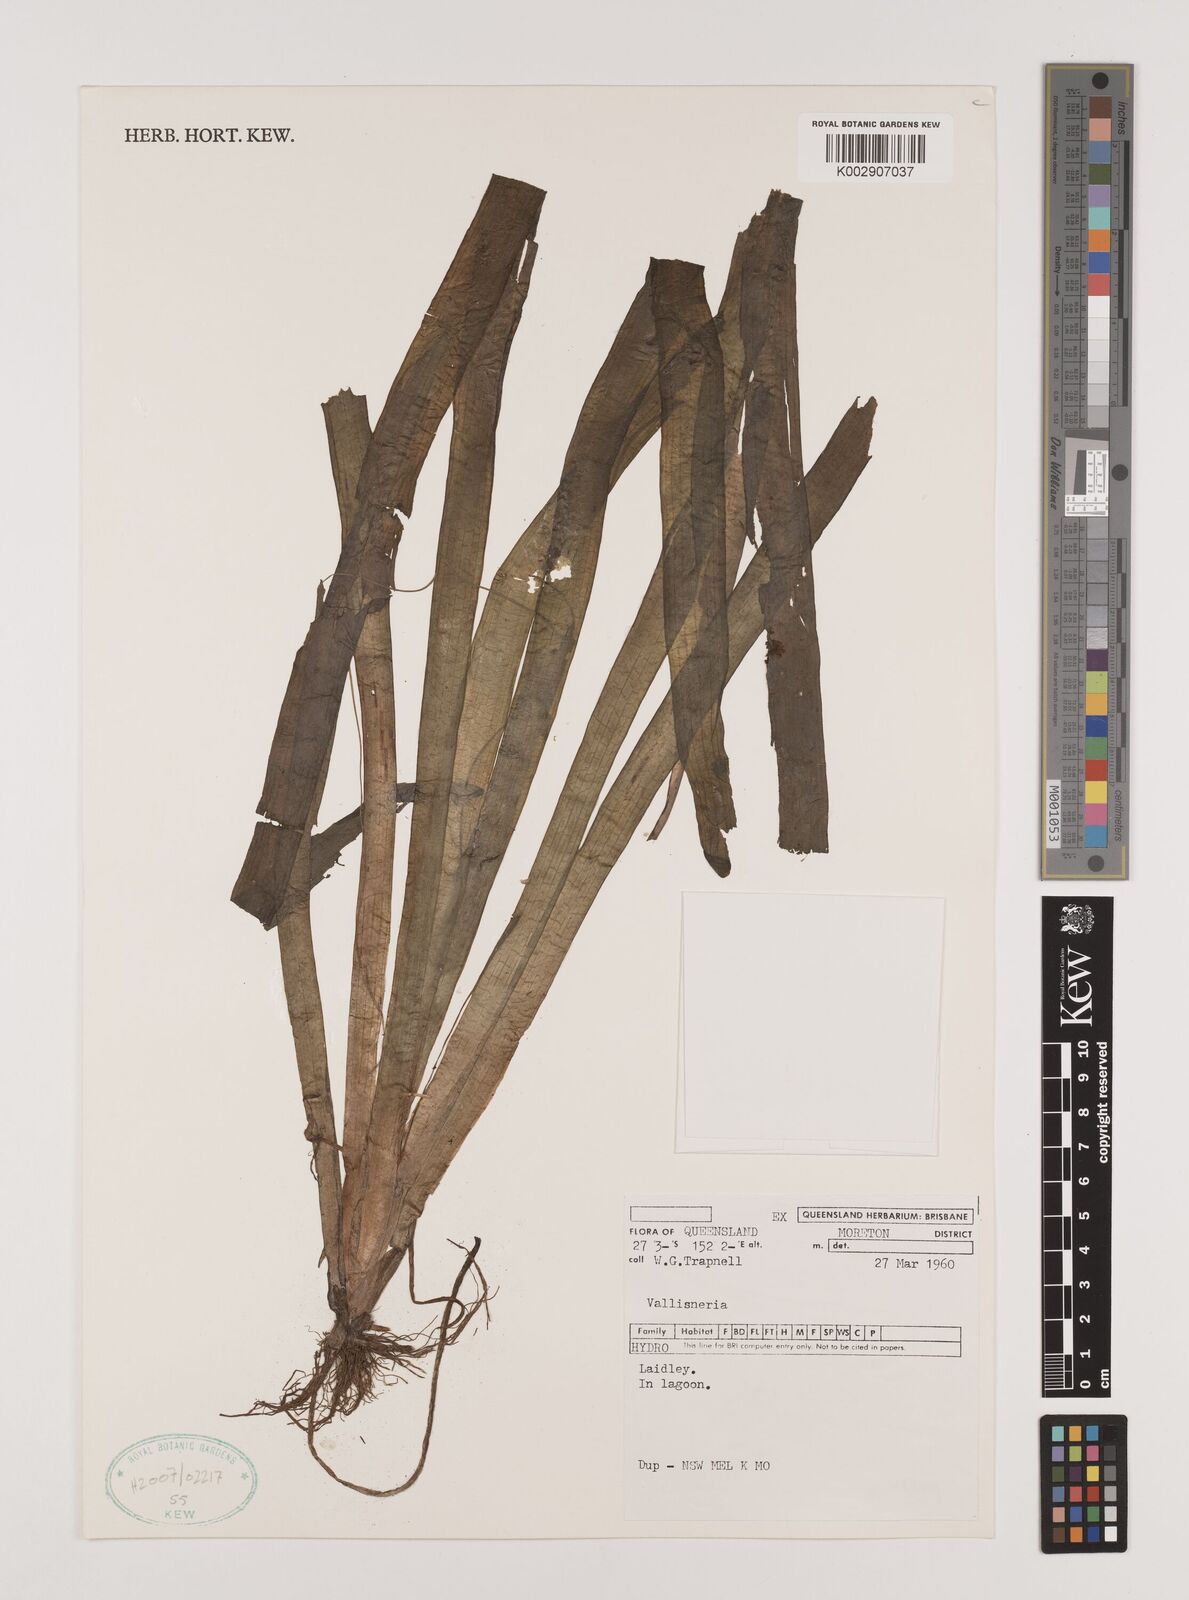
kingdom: Plantae
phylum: Tracheophyta
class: Liliopsida
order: Alismatales
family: Hydrocharitaceae
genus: Vallisneria
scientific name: Vallisneria
